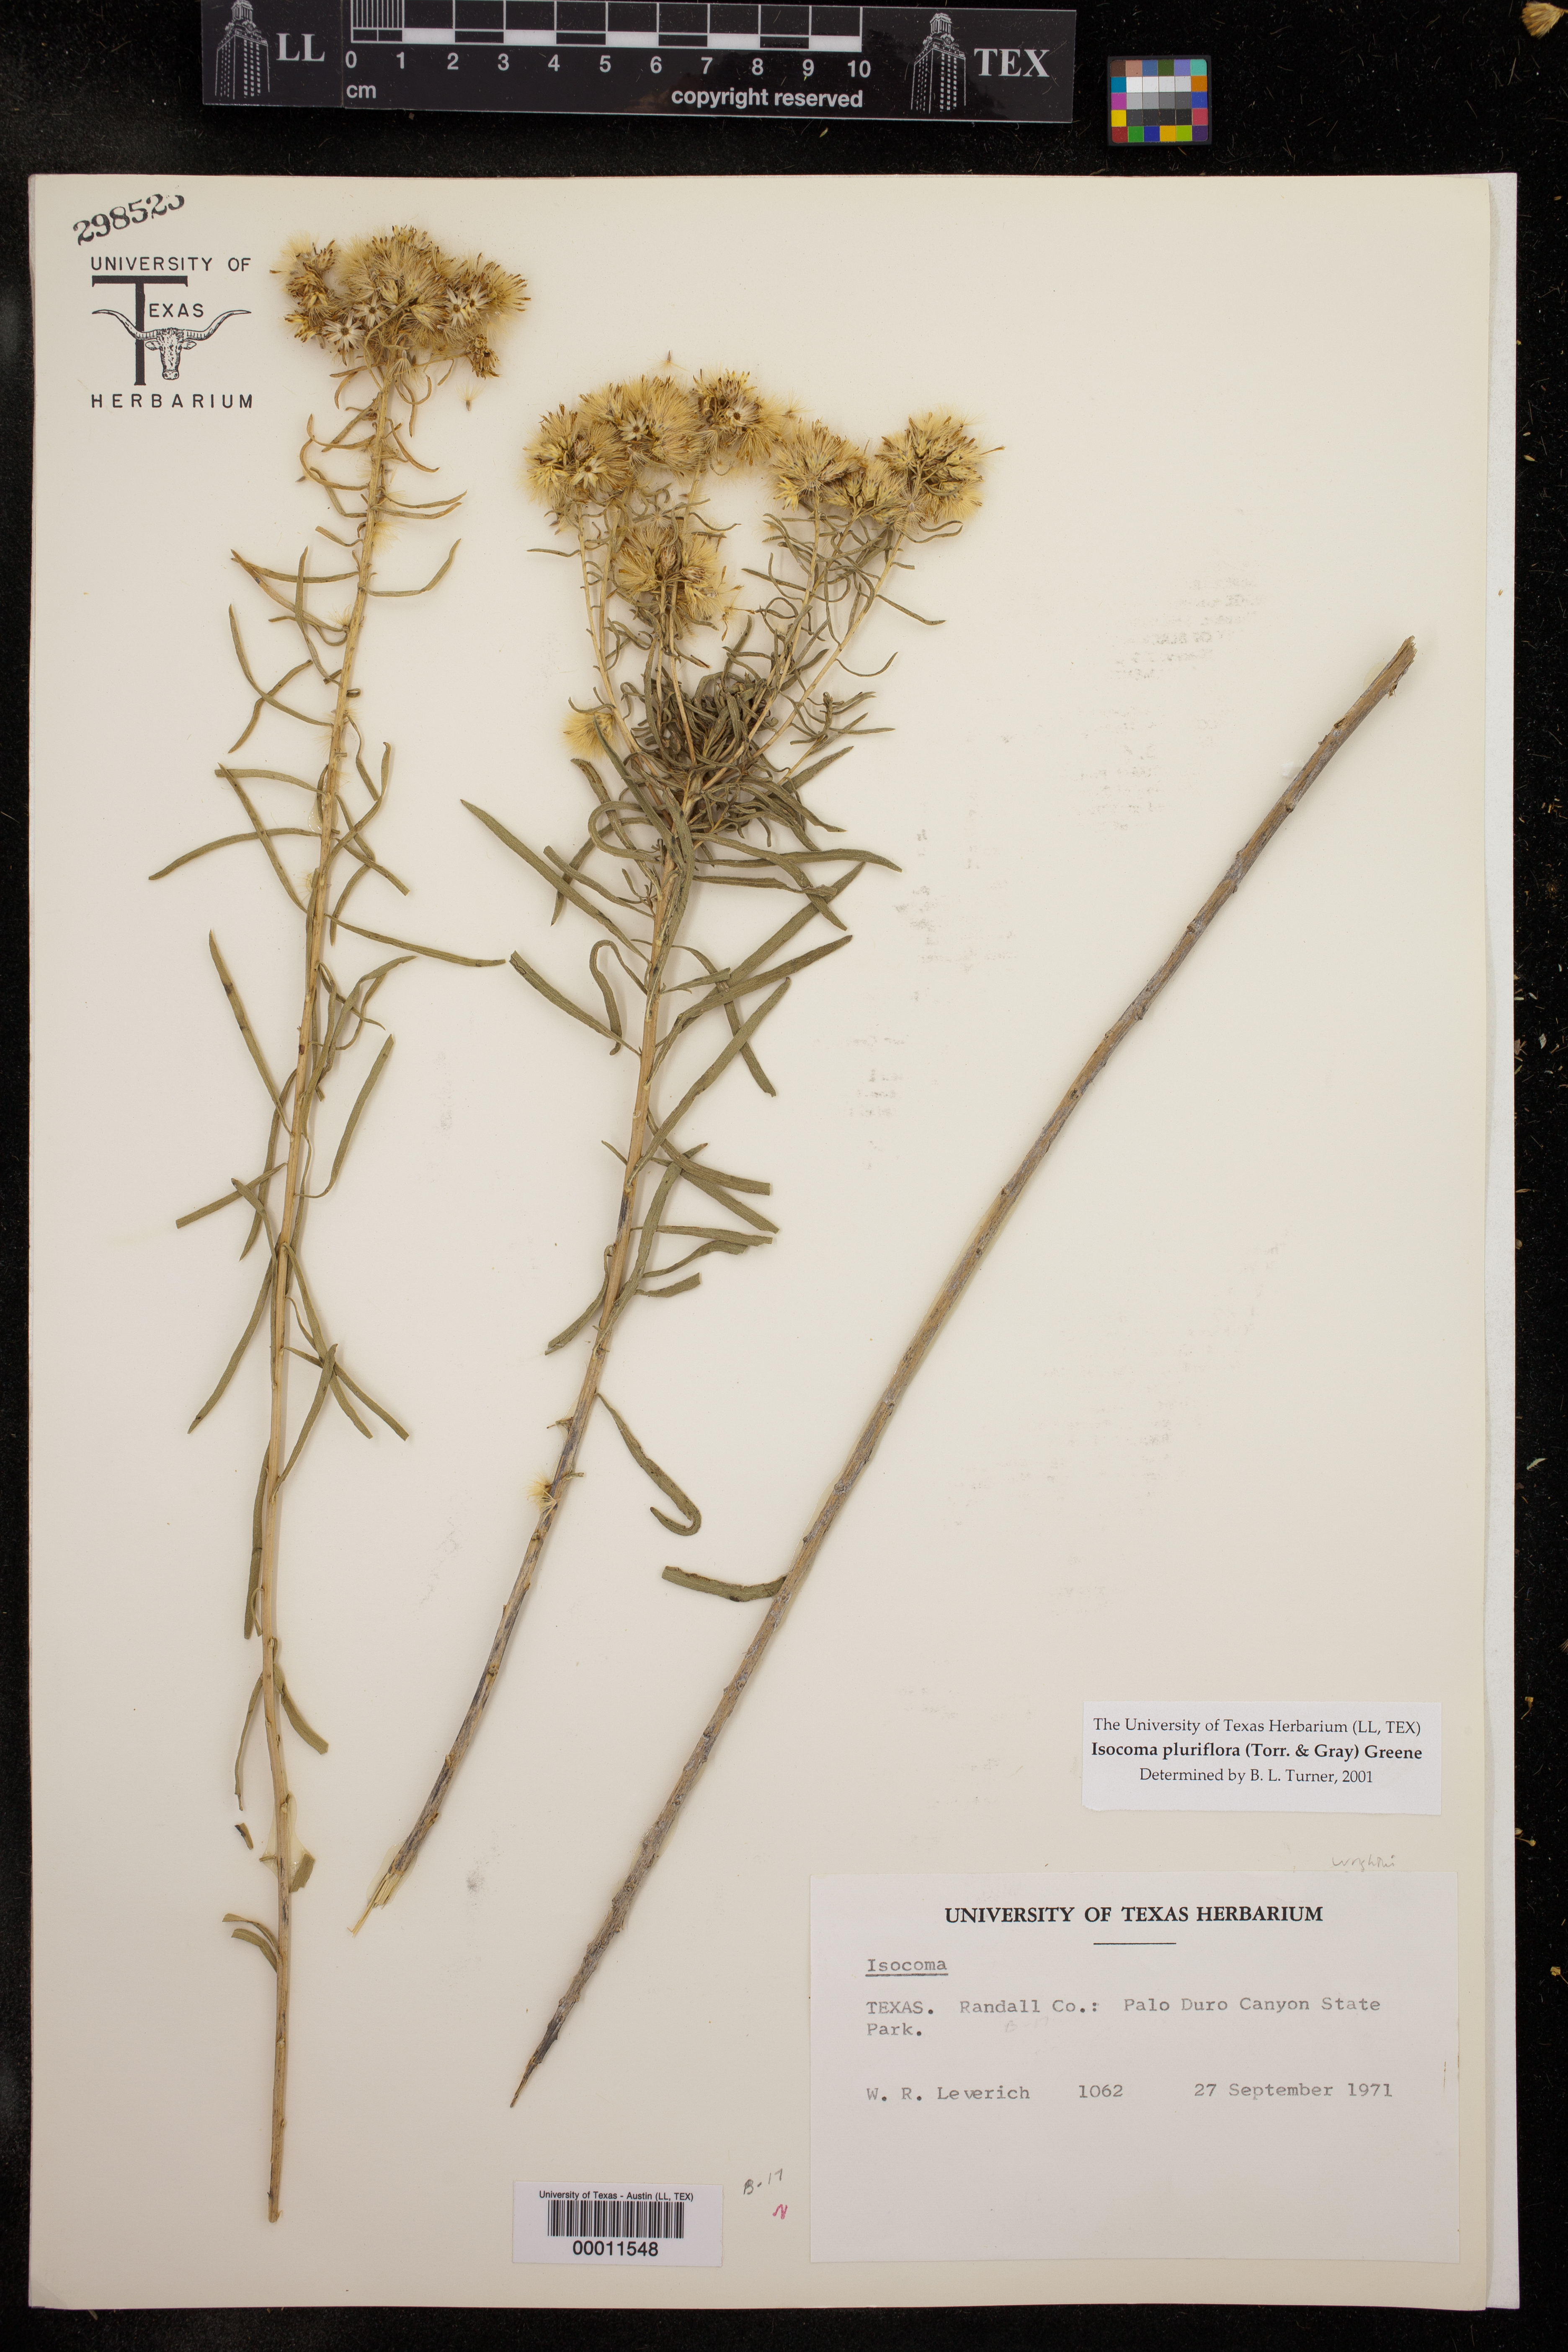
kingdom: Plantae
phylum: Tracheophyta
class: Magnoliopsida
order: Asterales
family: Asteraceae
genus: Isocoma
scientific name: Isocoma pluriflora
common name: Southern jimmyweed
